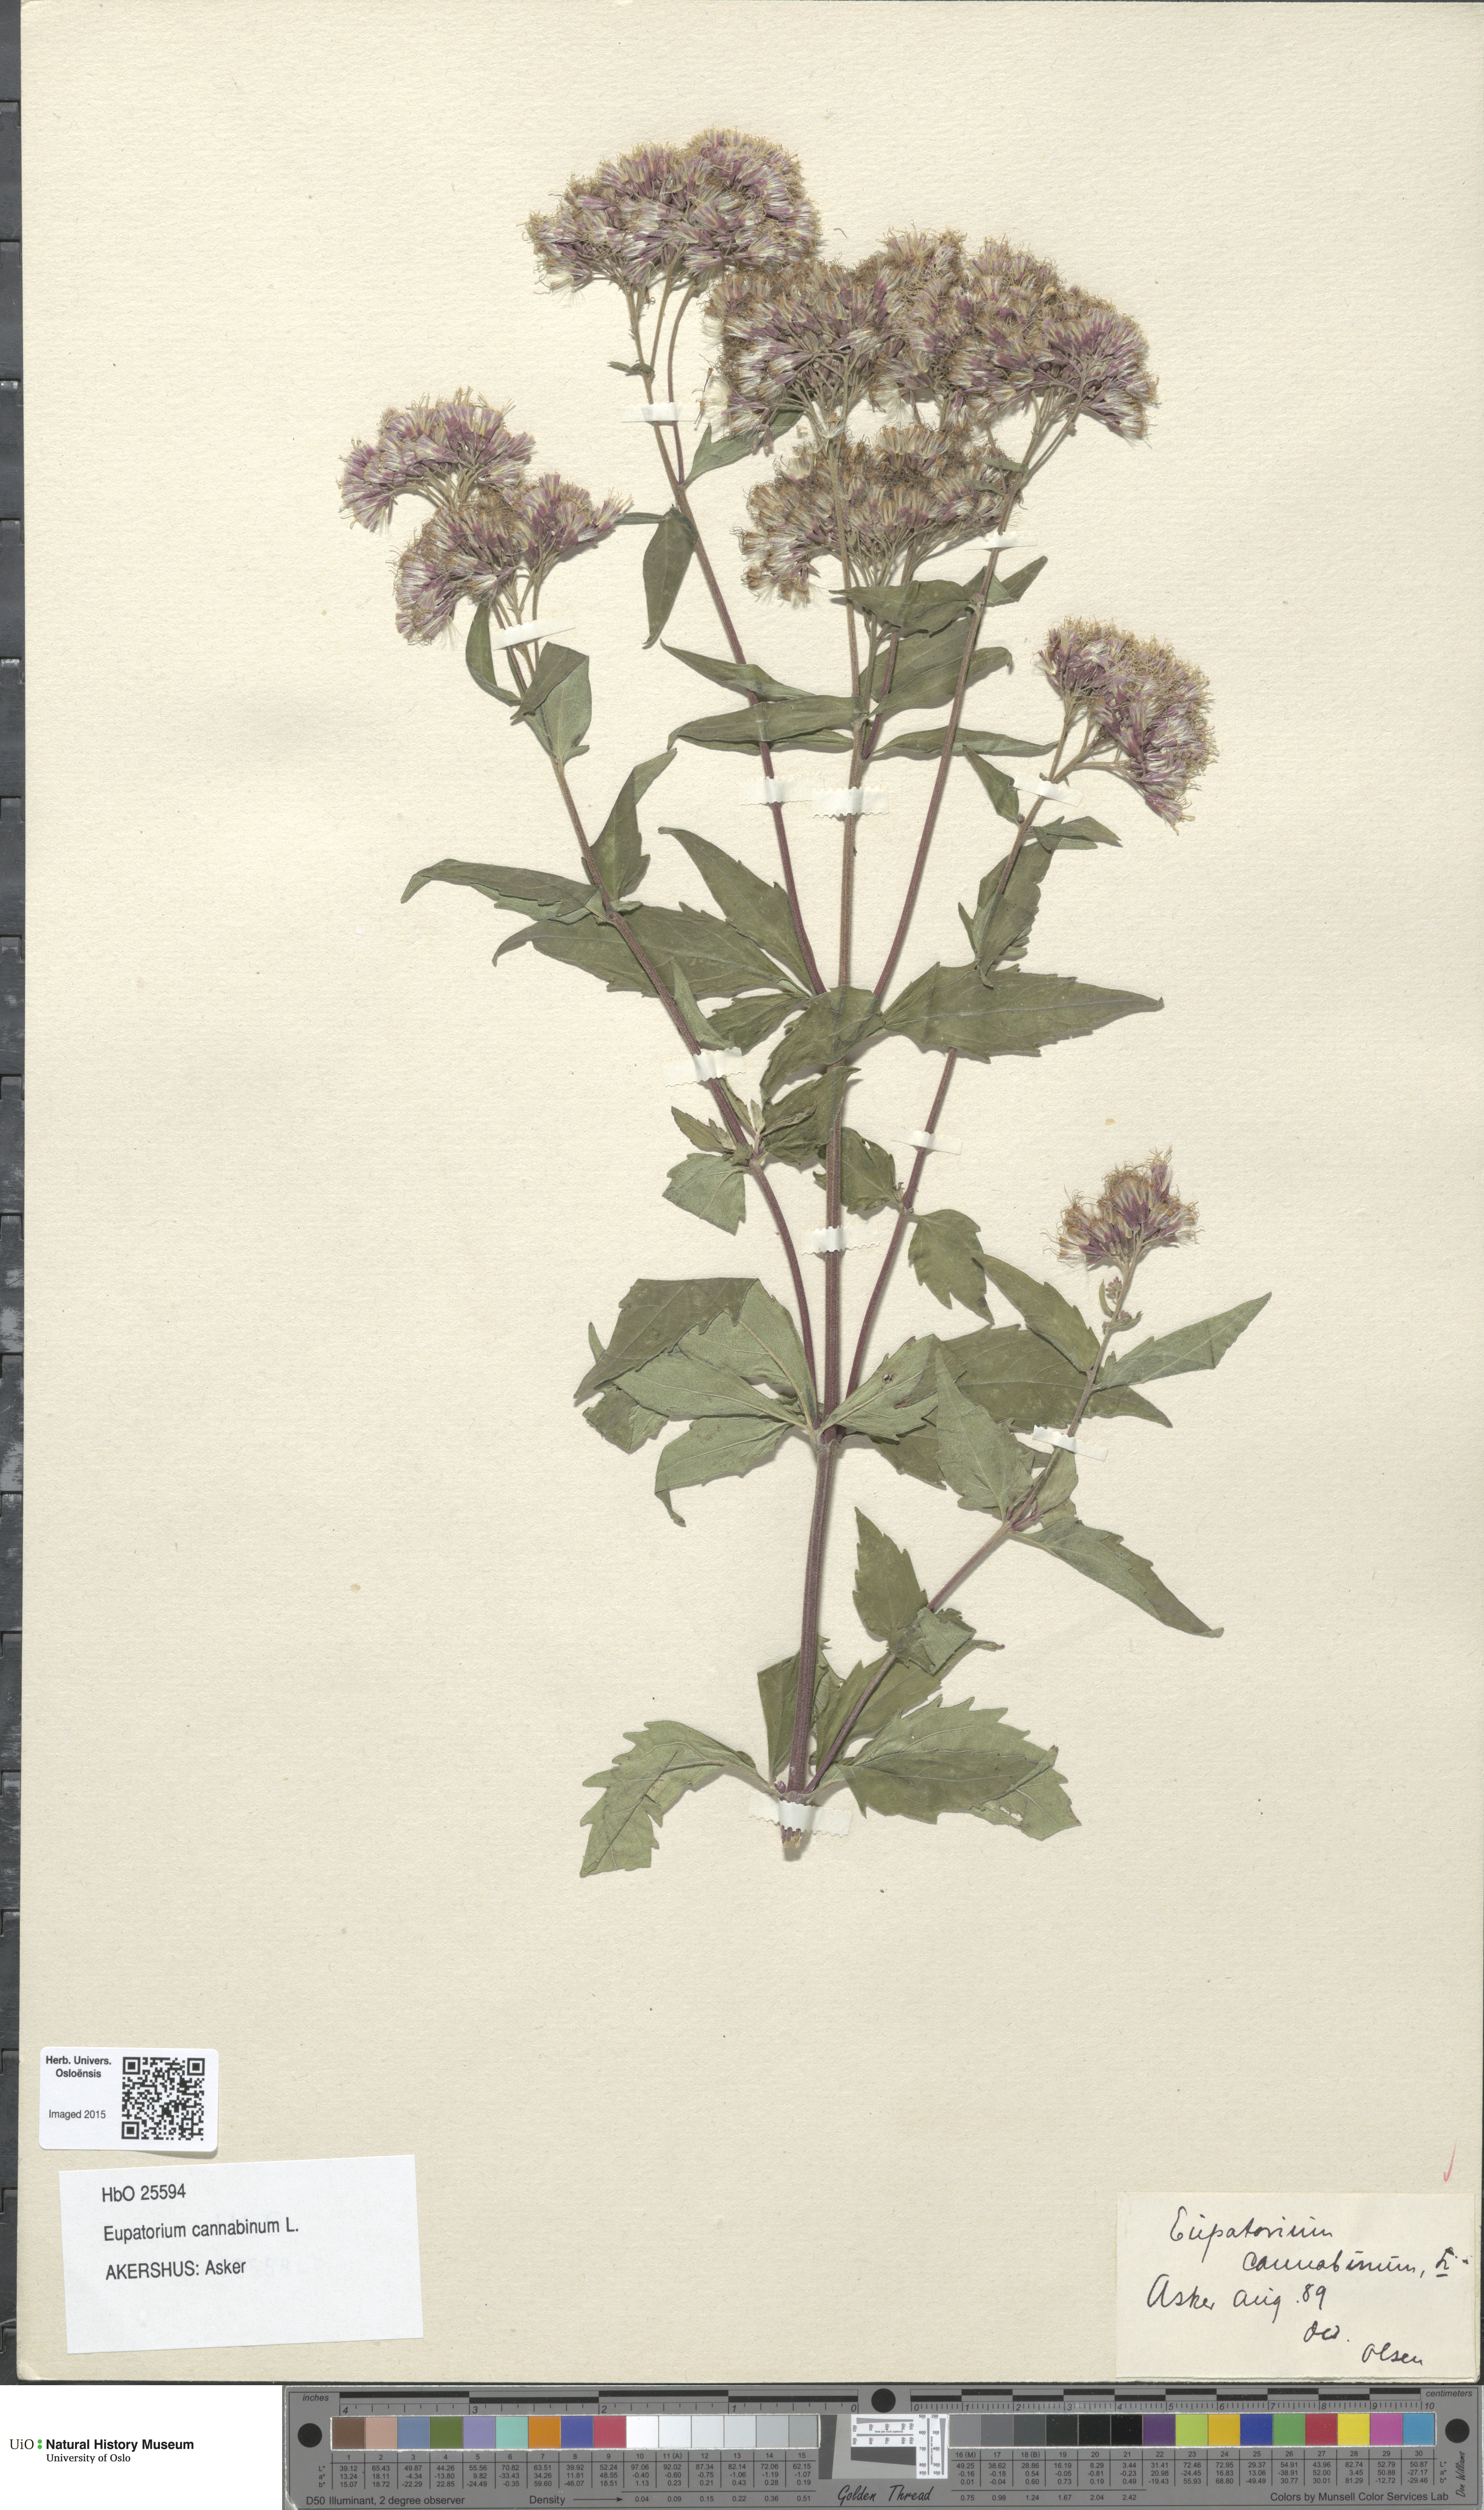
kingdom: Plantae
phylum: Tracheophyta
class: Magnoliopsida
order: Asterales
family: Asteraceae
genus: Eupatorium
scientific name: Eupatorium cannabinum
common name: Hemp-agrimony
